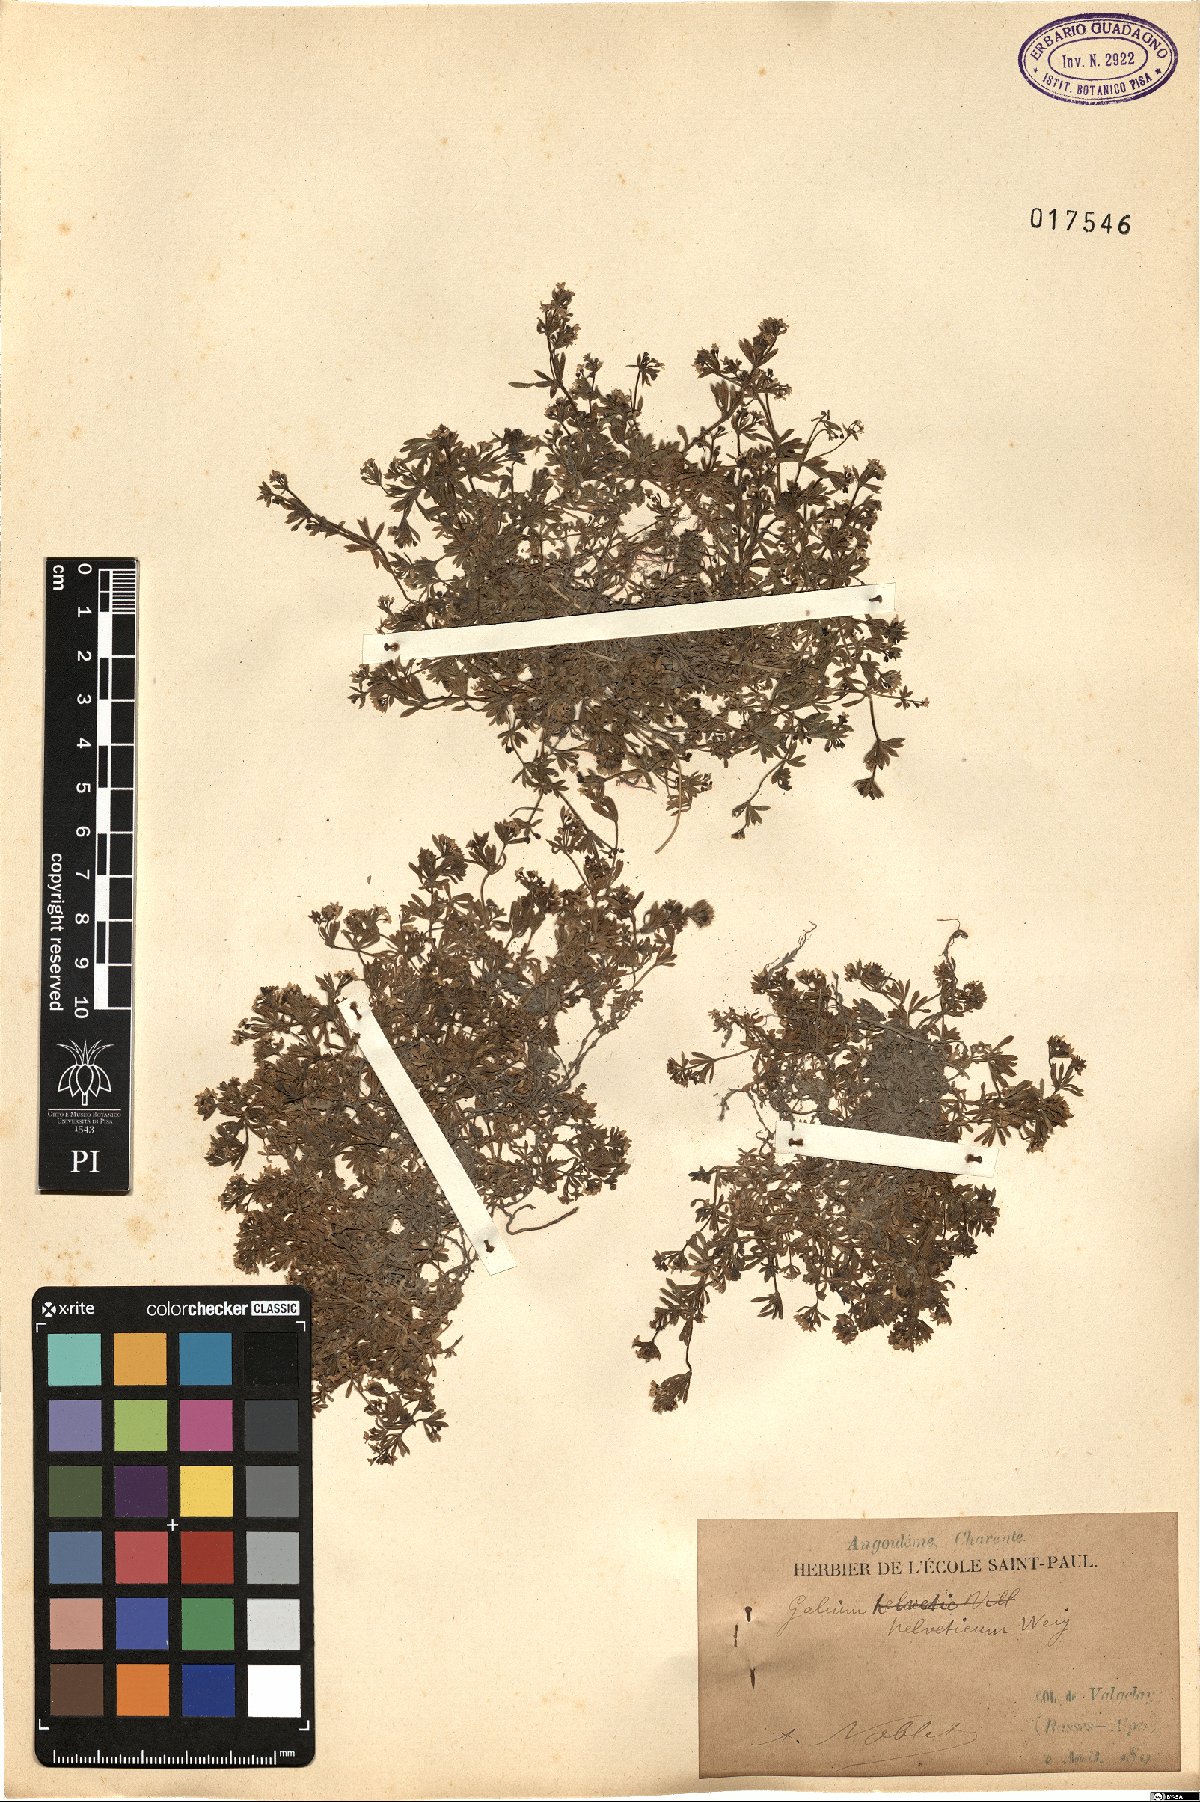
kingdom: Plantae
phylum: Tracheophyta
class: Magnoliopsida
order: Gentianales
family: Rubiaceae
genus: Galium
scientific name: Galium saxatile
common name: Heath bedstraw
